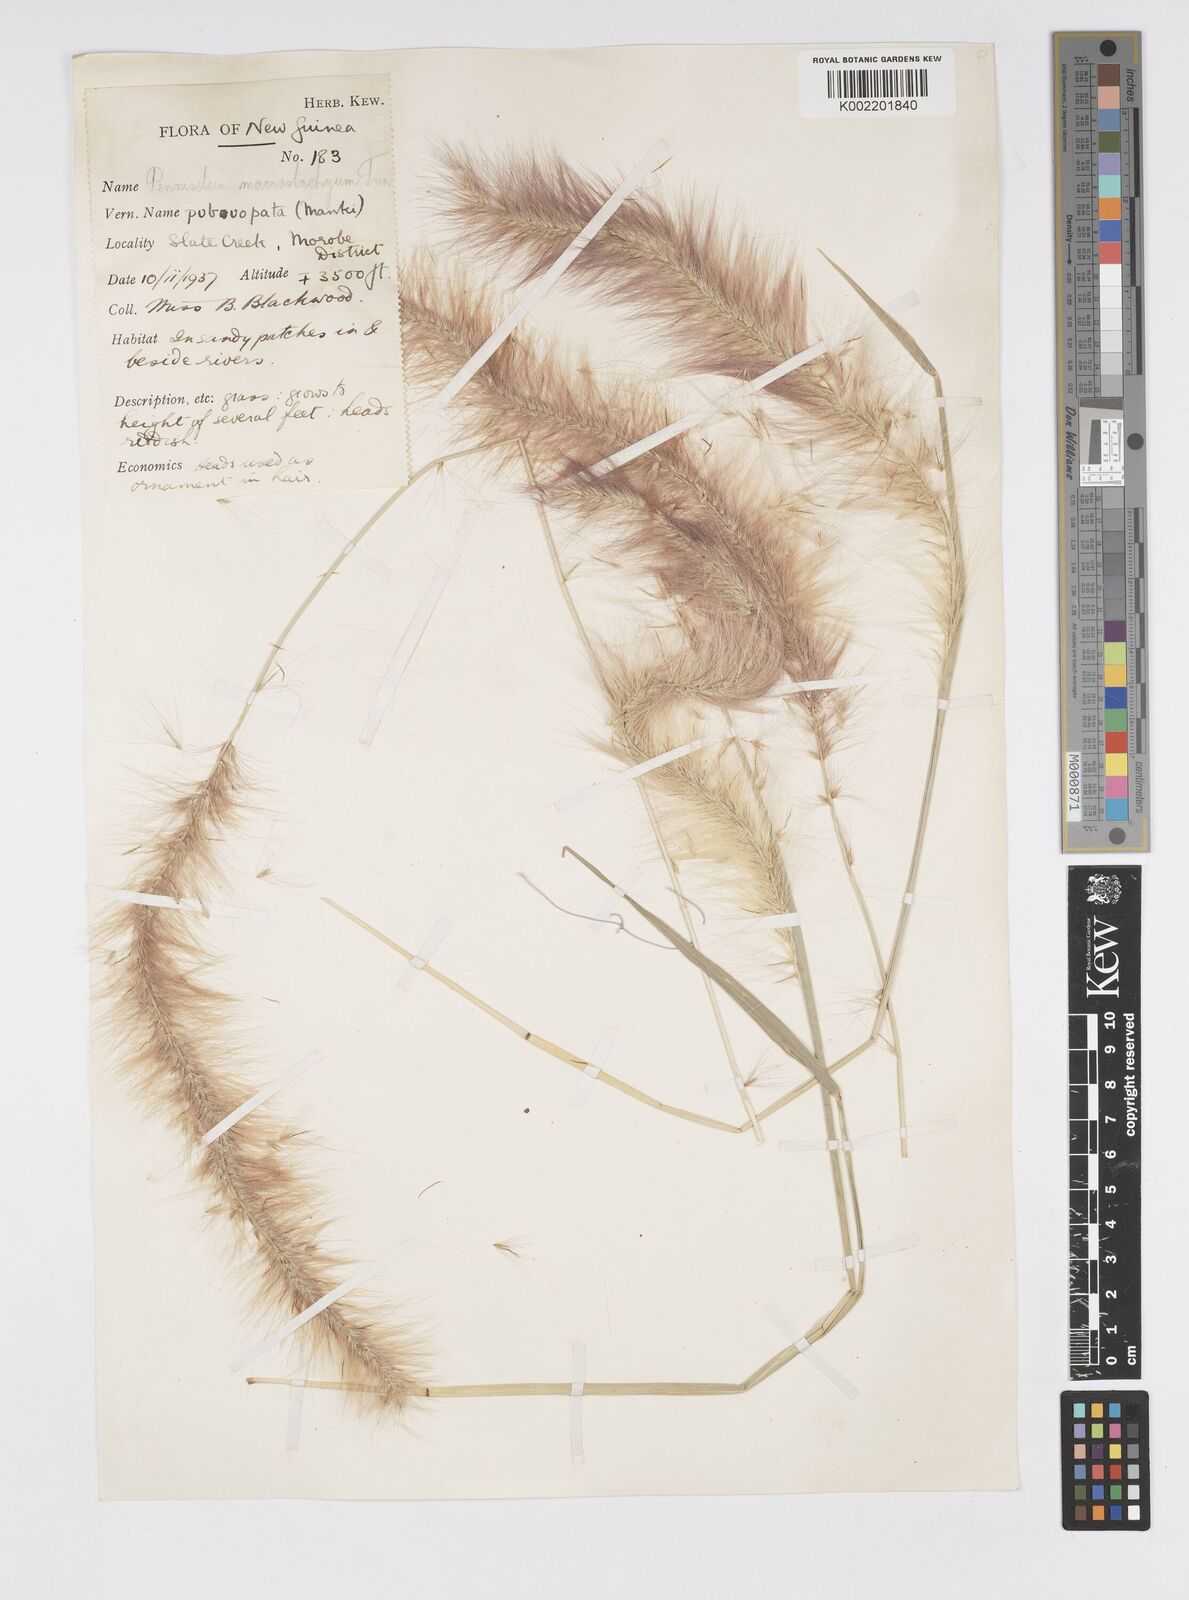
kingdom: Plantae
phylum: Tracheophyta
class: Liliopsida
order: Poales
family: Poaceae
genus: Cenchrus
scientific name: Cenchrus purpureus
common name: Elephant grass
